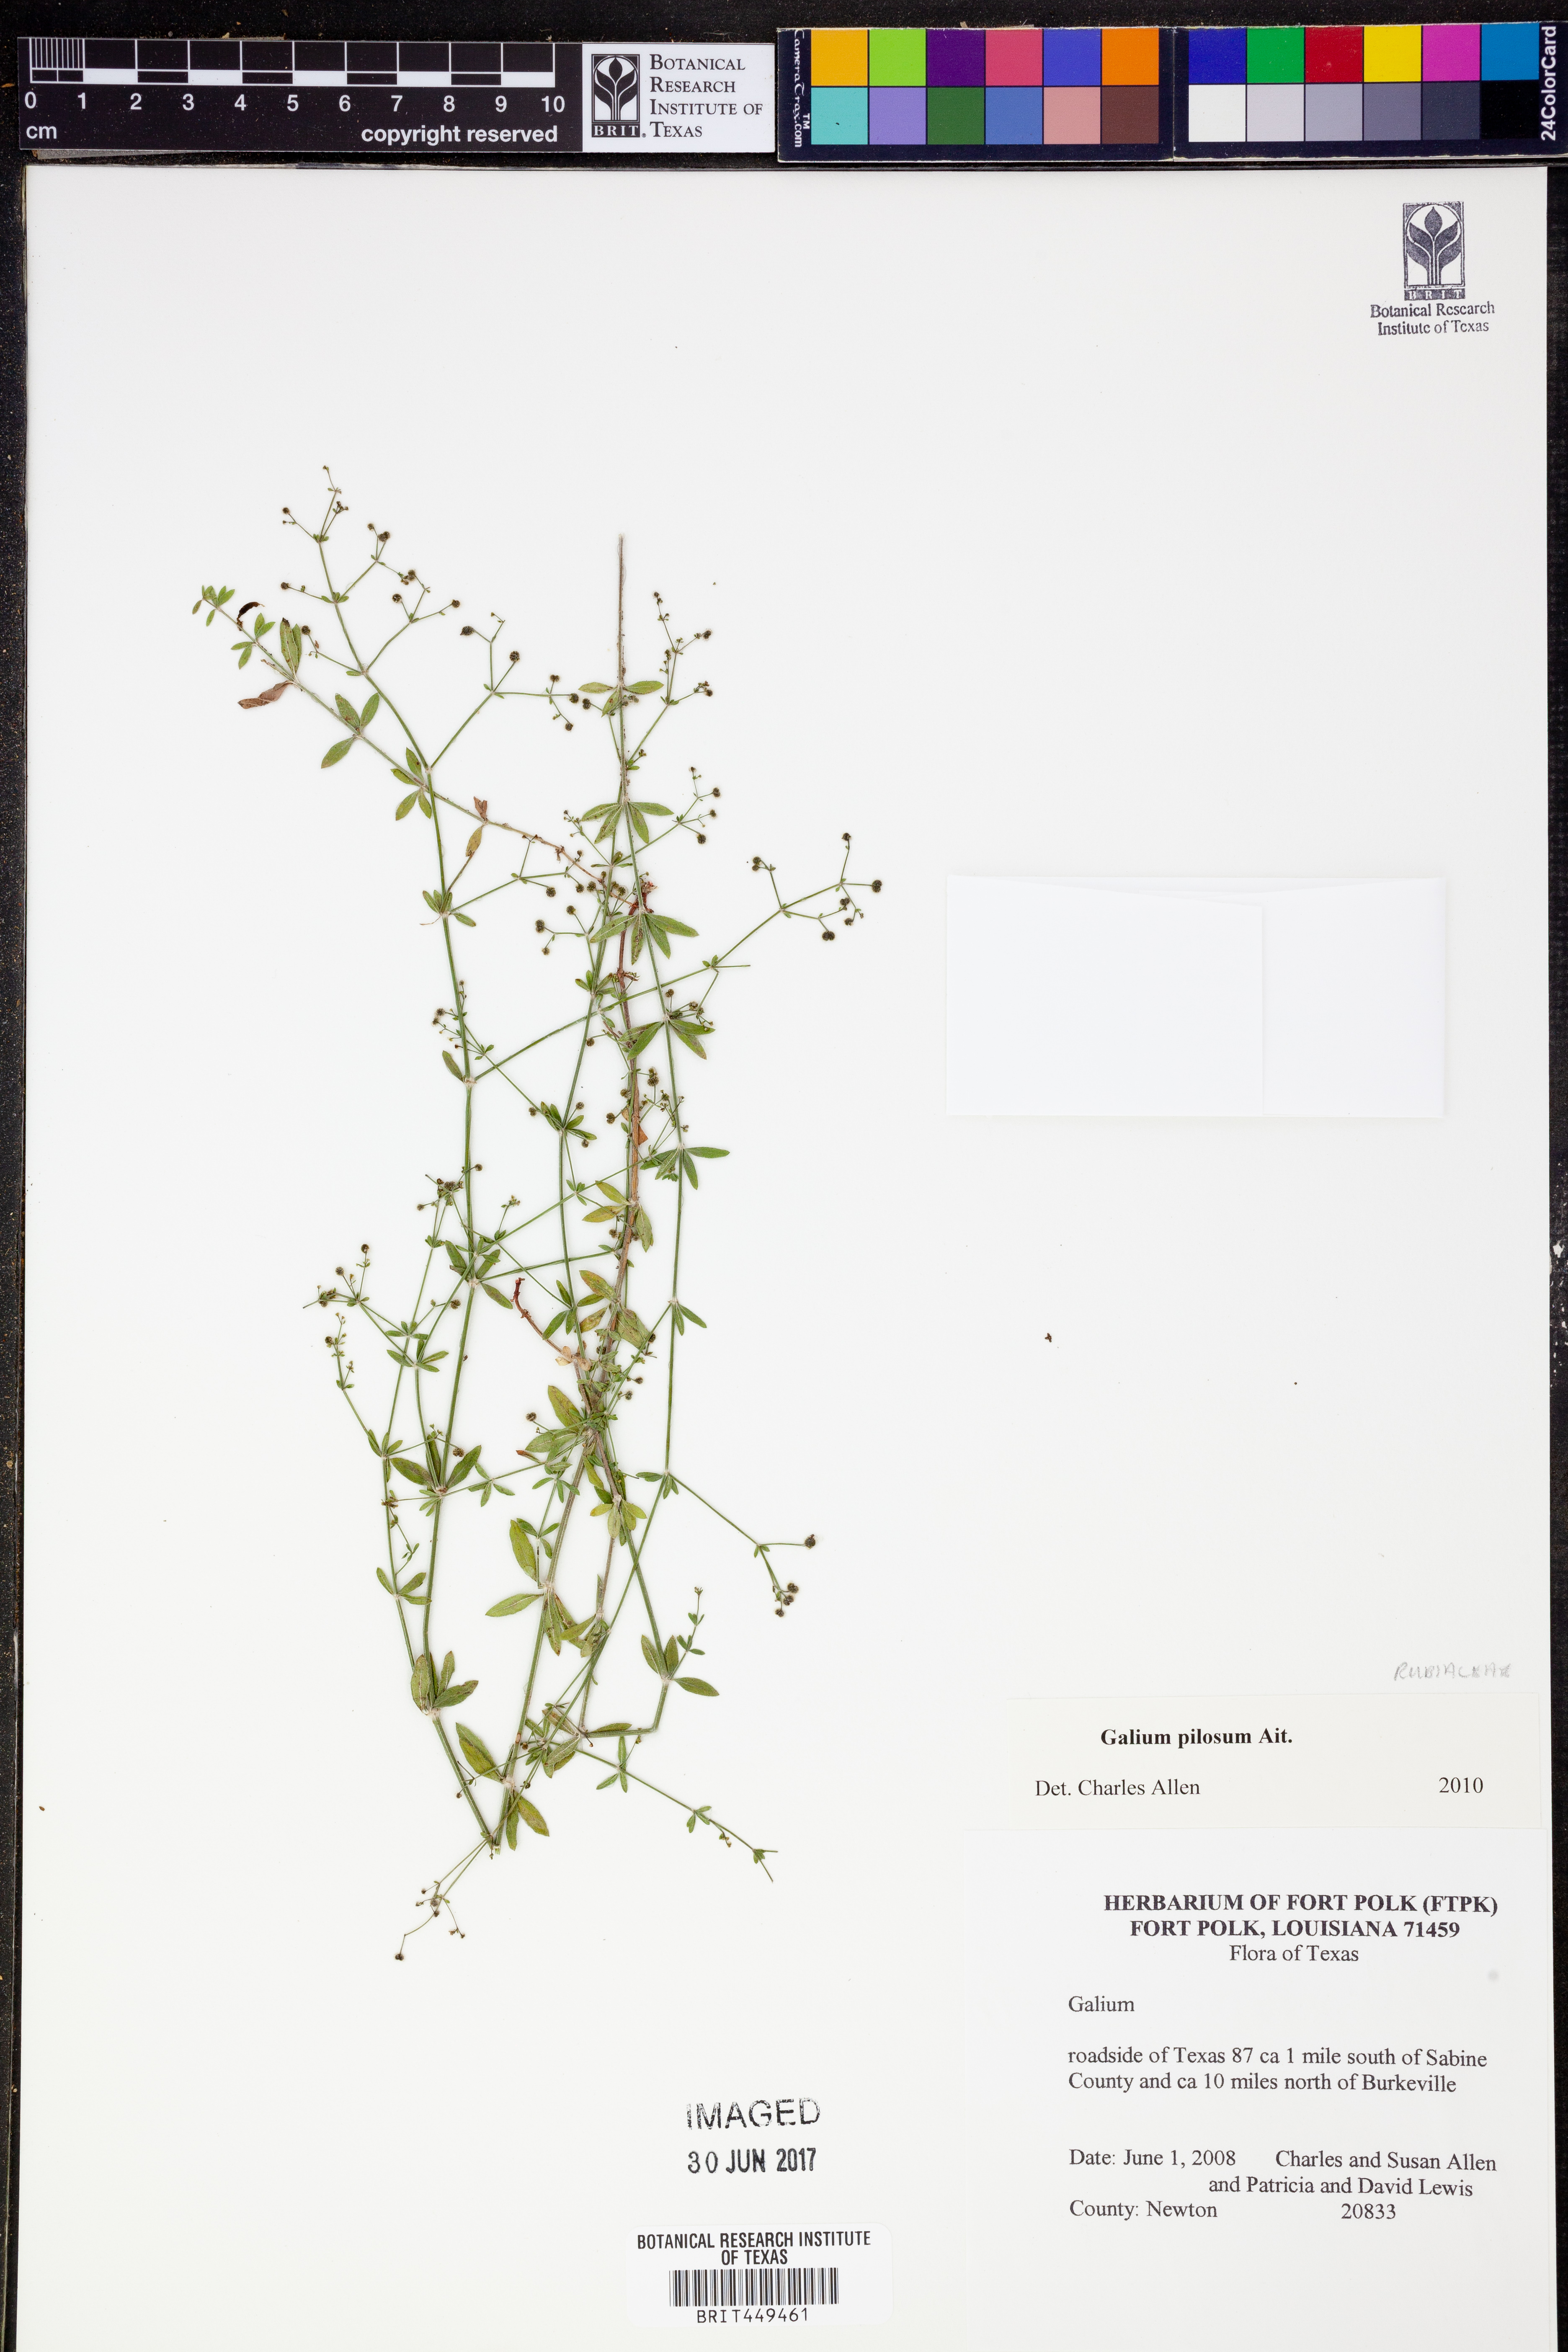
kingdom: Plantae
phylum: Tracheophyta
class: Magnoliopsida
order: Gentianales
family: Rubiaceae
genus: Galium
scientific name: Galium pilosum
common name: Hairy bedstraw
